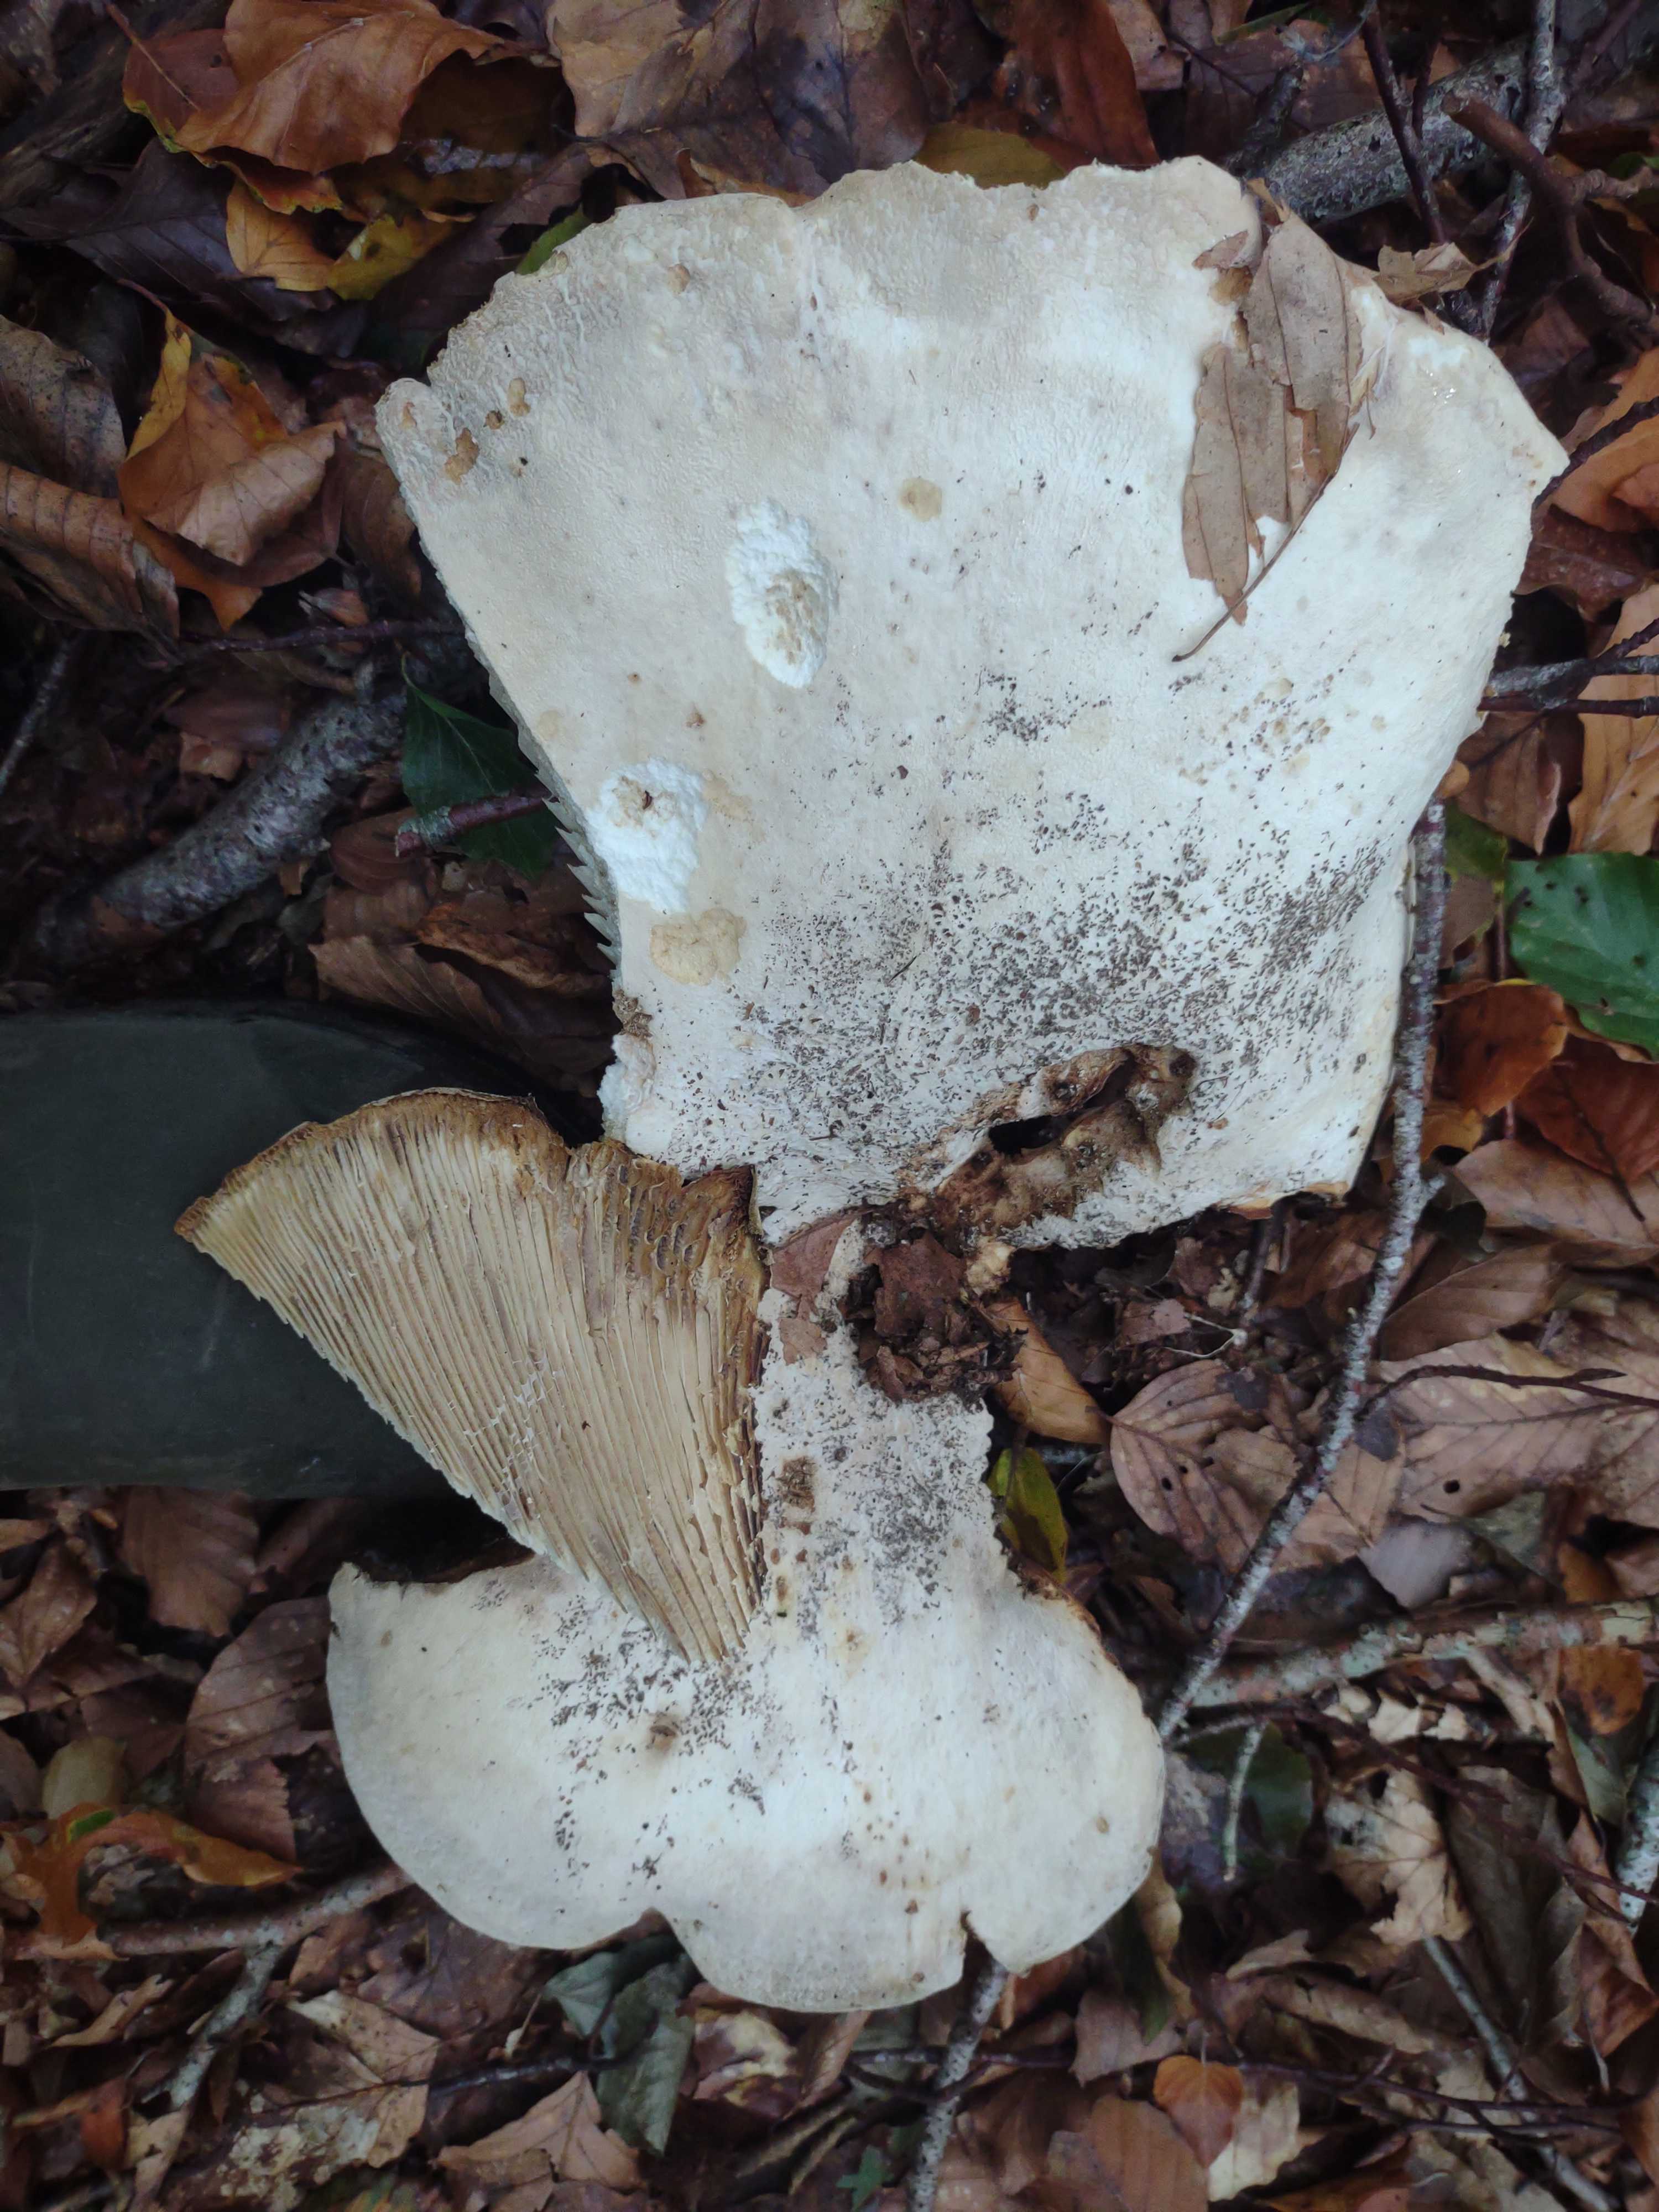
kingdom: Fungi
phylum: Basidiomycota
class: Agaricomycetes
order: Russulales
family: Russulaceae
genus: Lactifluus
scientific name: Lactifluus
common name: mælkehat
